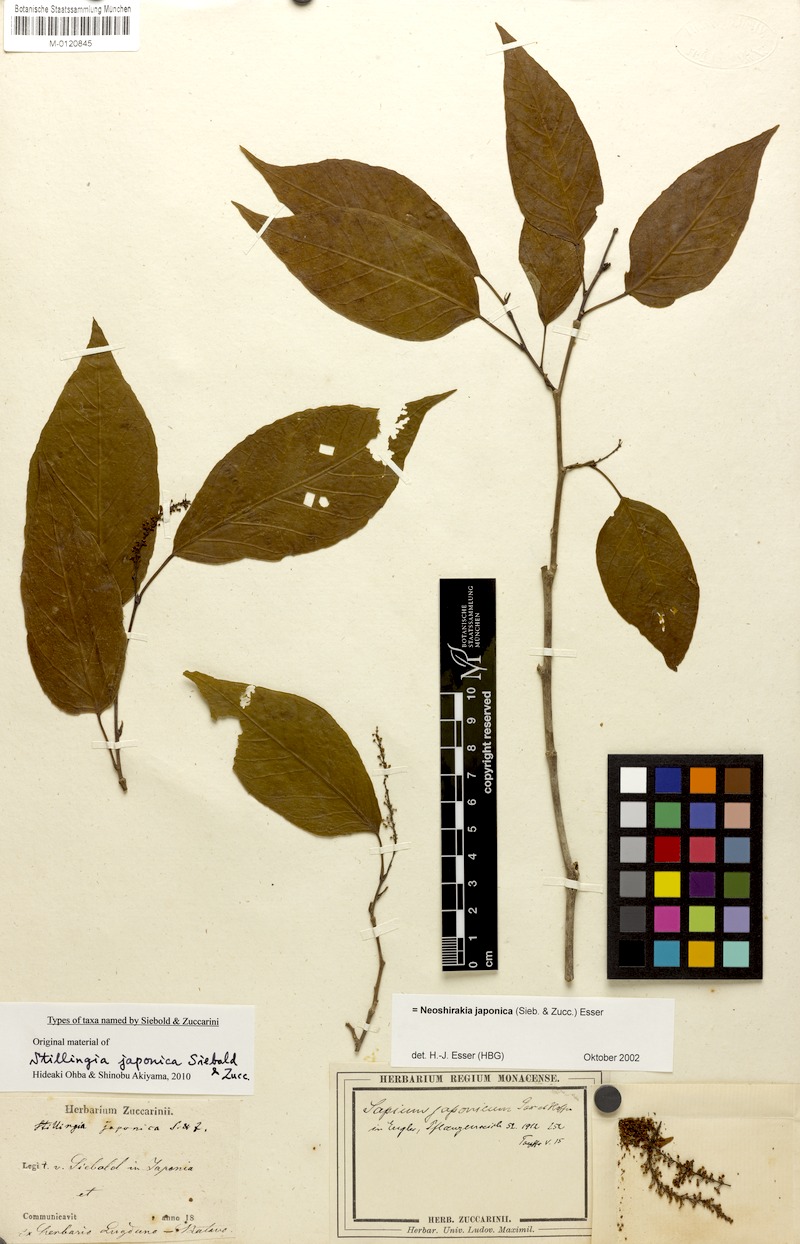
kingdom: Plantae
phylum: Tracheophyta
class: Magnoliopsida
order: Malpighiales
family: Euphorbiaceae
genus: Neoshirakia
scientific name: Neoshirakia japonica
